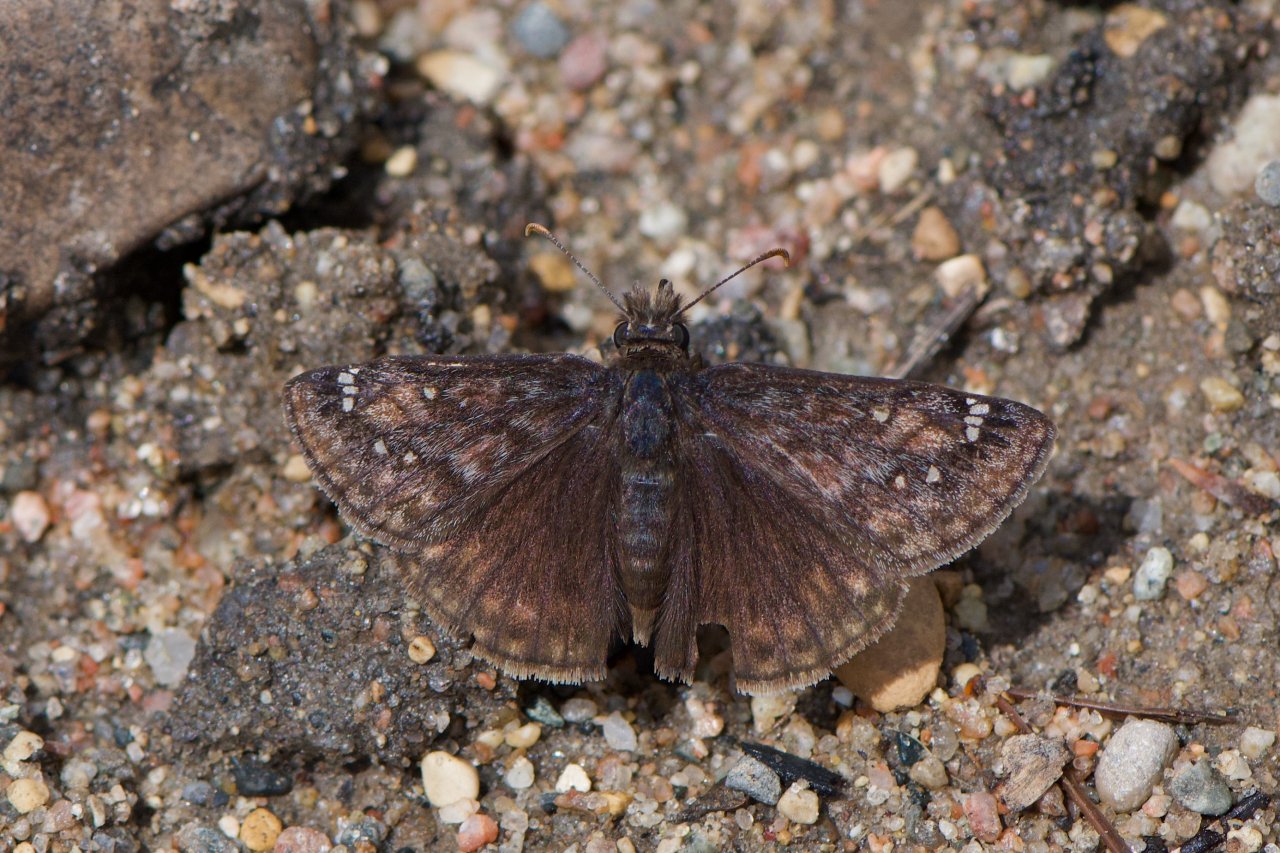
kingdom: Animalia
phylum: Arthropoda
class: Insecta
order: Lepidoptera
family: Hesperiidae
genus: Erynnis
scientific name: Erynnis
